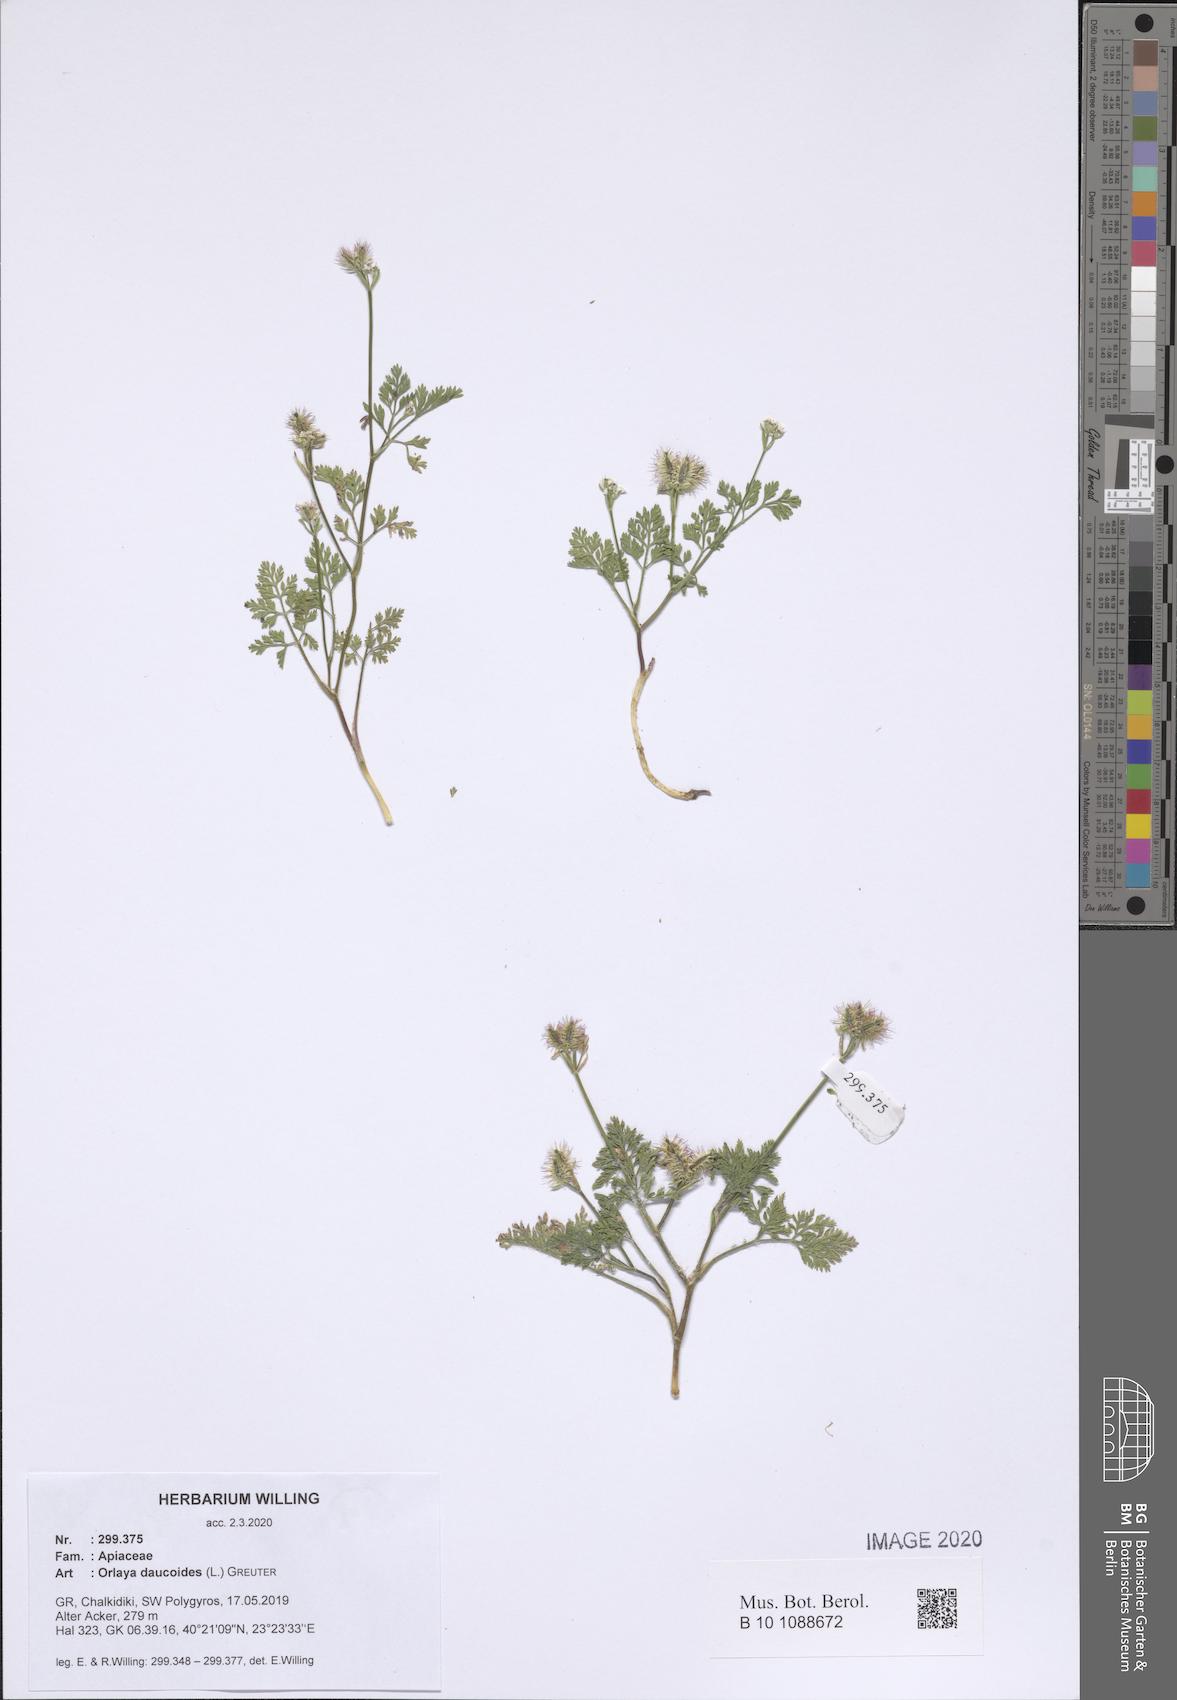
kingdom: Plantae
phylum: Tracheophyta
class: Magnoliopsida
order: Apiales
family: Apiaceae
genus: Orlaya
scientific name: Orlaya daucoides
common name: Flat-fruit orlaya
